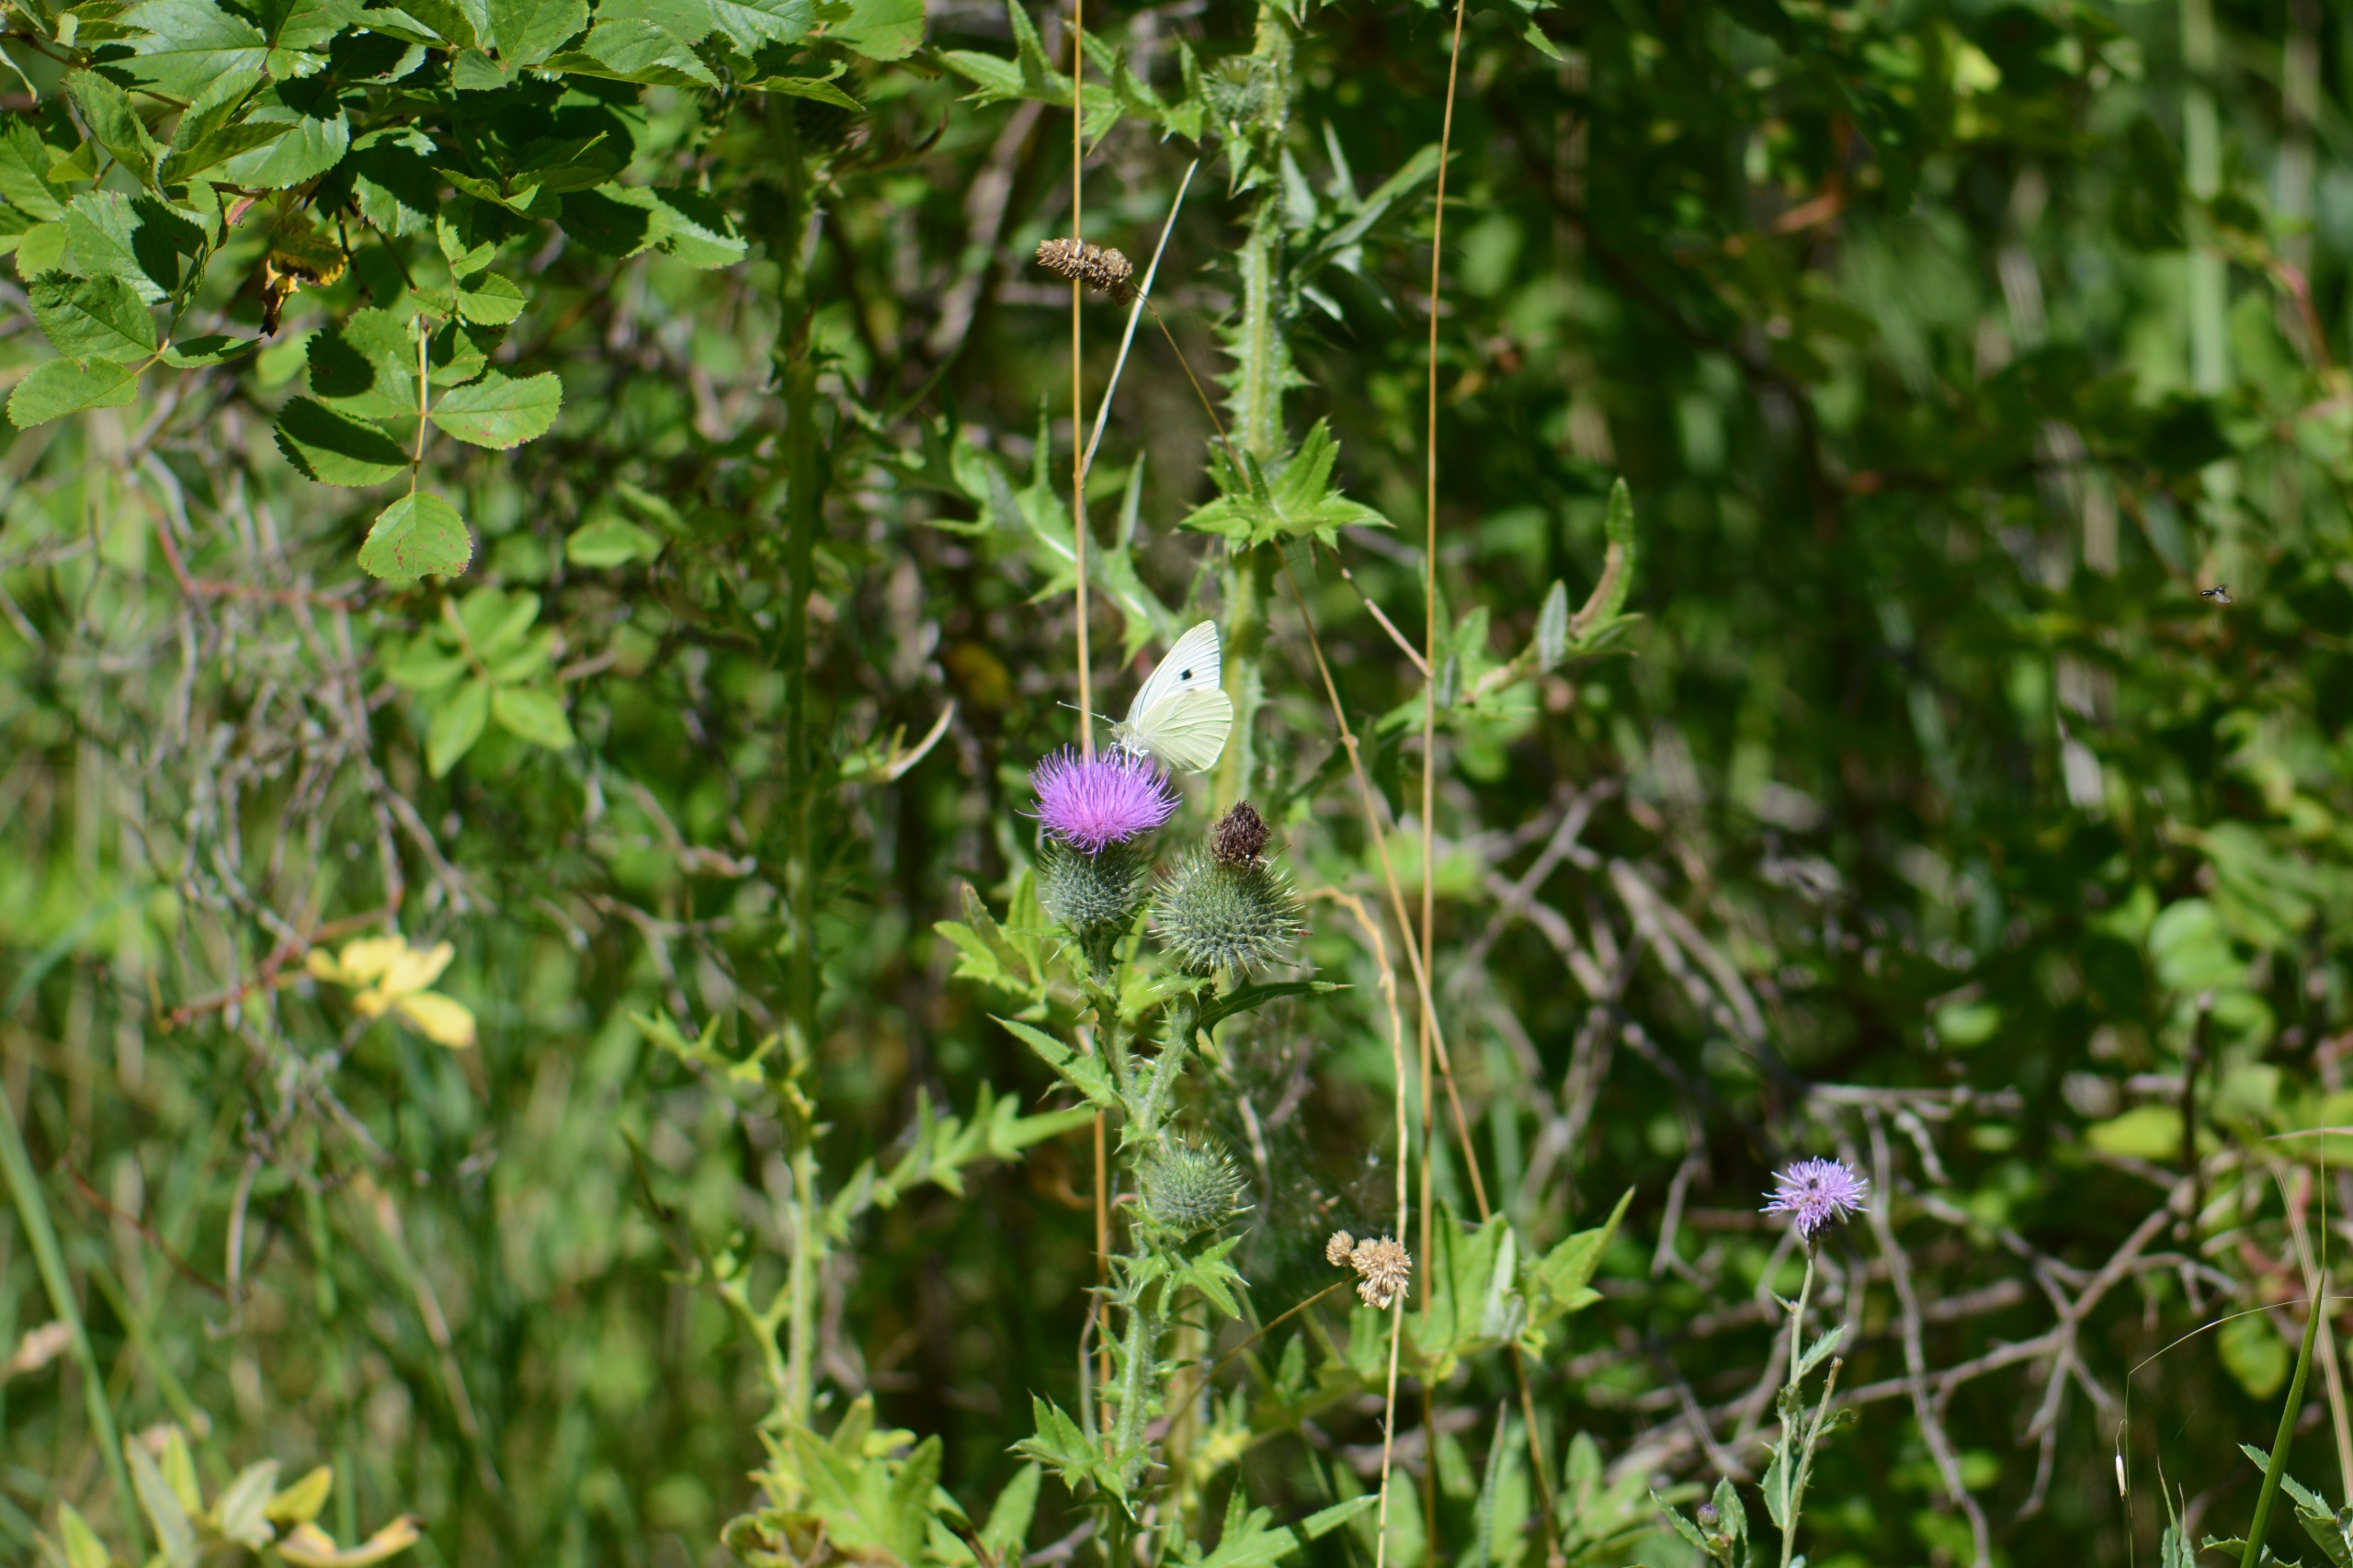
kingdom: Animalia
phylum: Arthropoda
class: Insecta
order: Lepidoptera
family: Pieridae
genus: Pieris
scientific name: Pieris brassicae
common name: Stor kålsommerfugl
